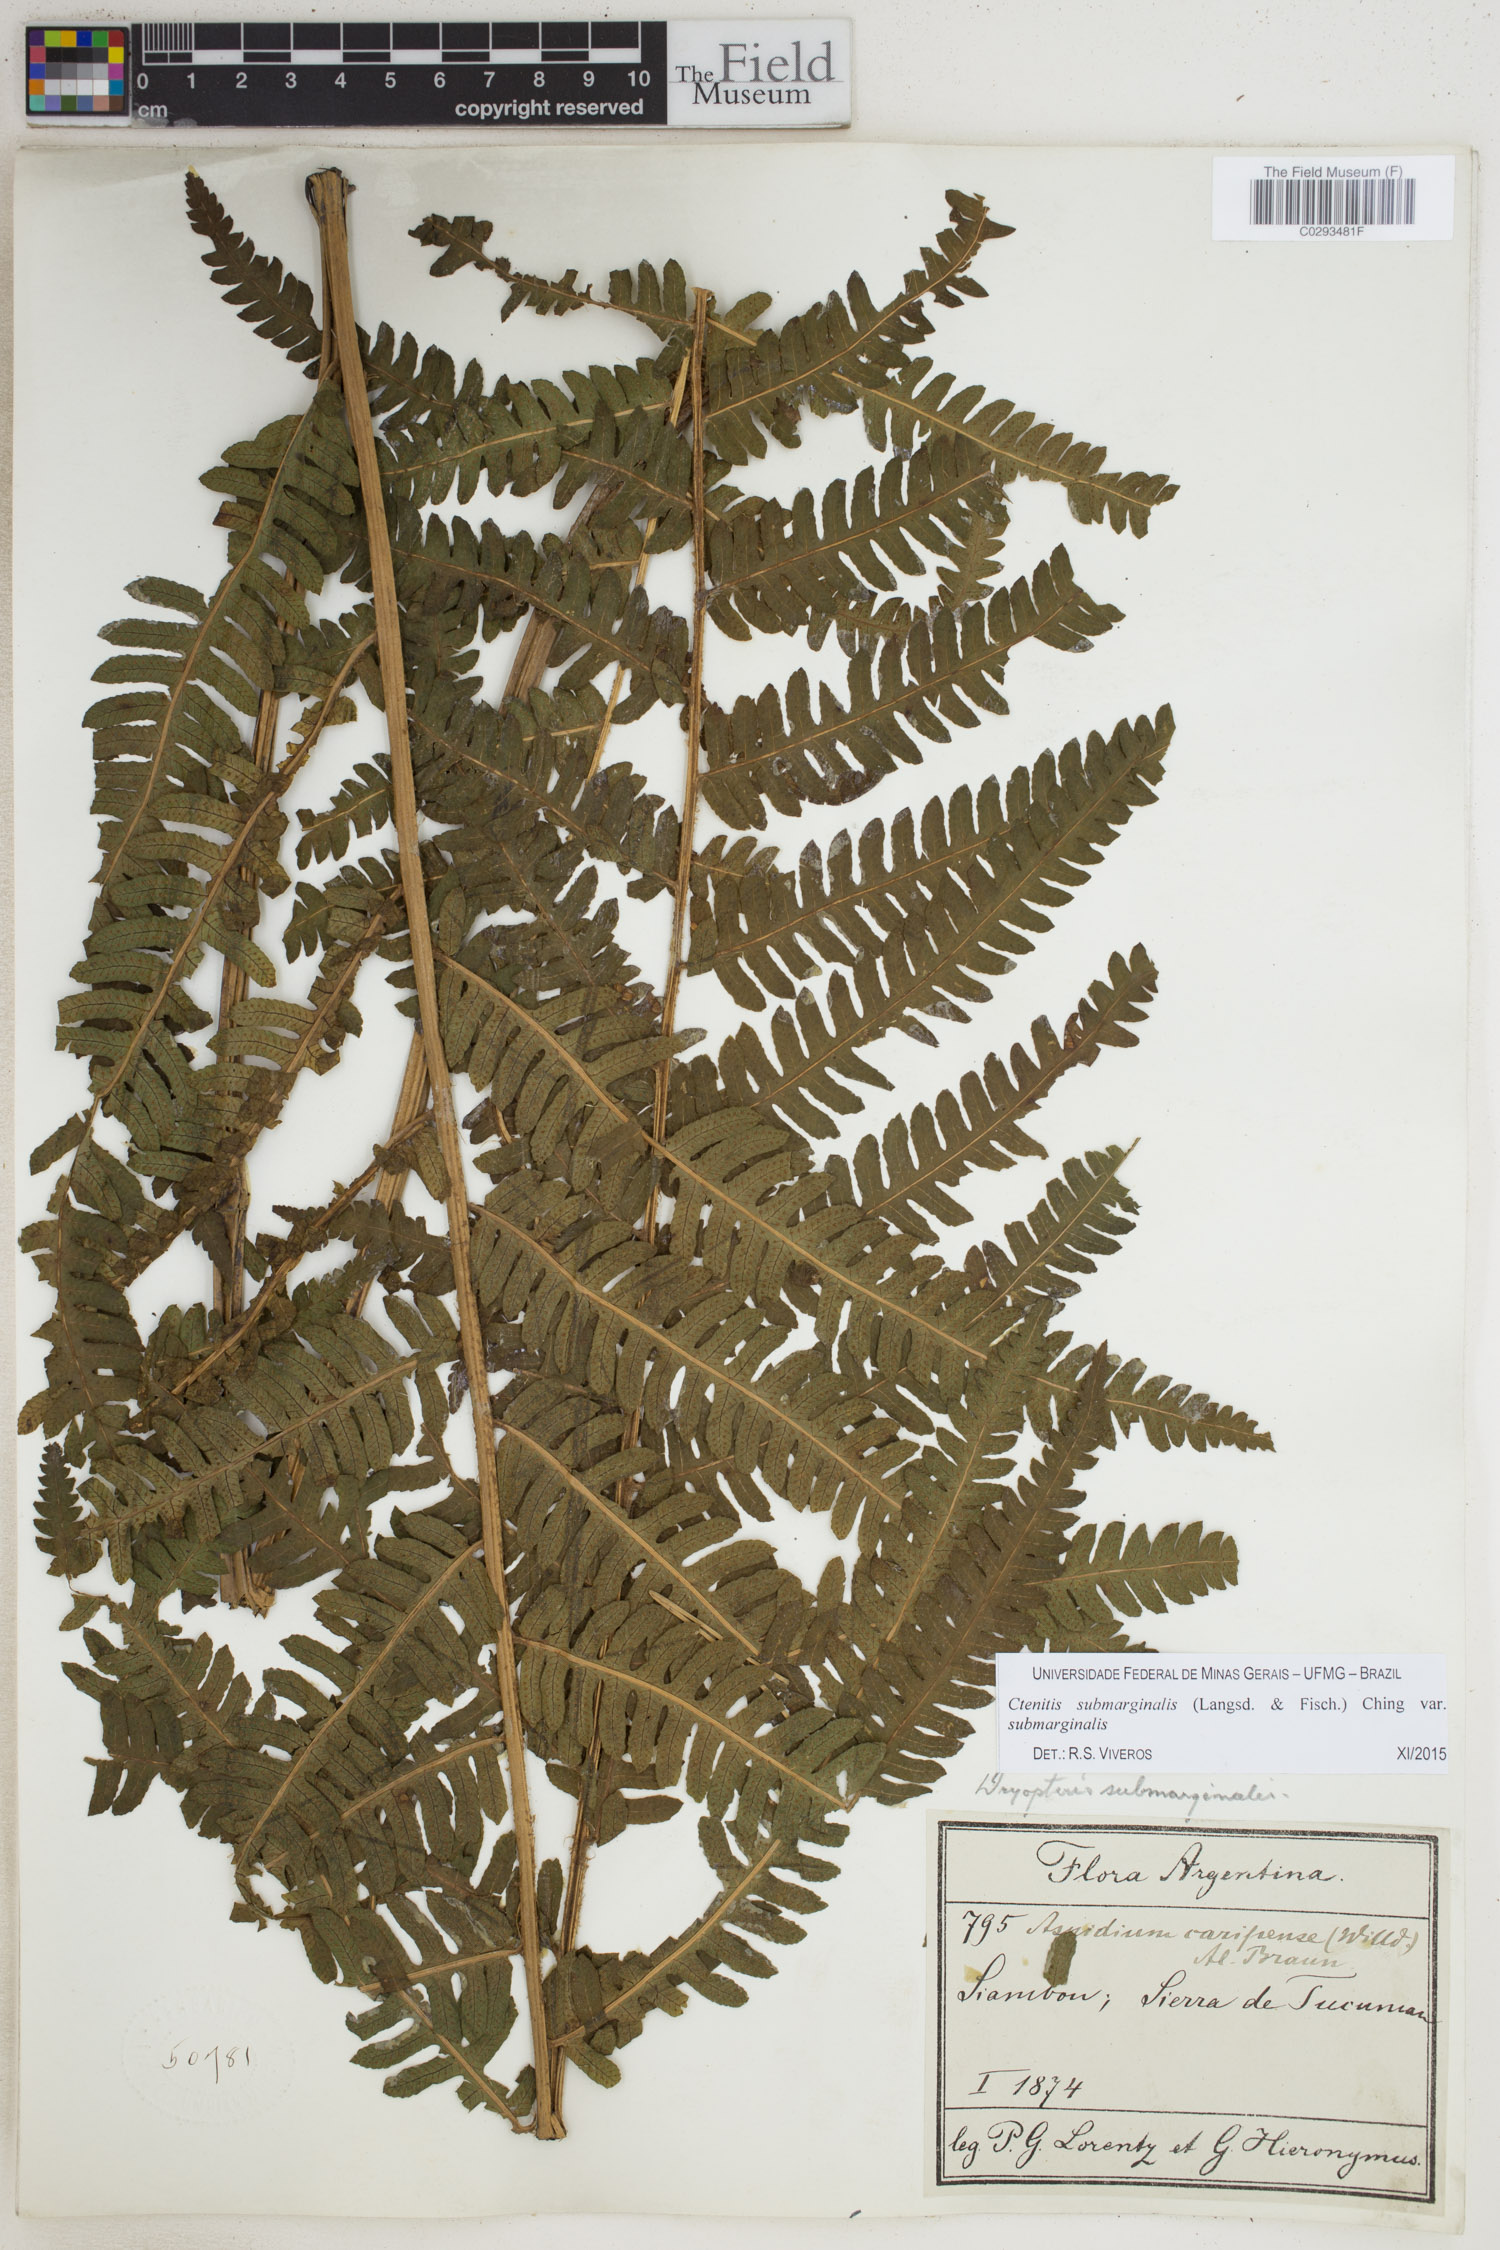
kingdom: Plantae
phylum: Tracheophyta
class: Polypodiopsida
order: Polypodiales
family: Dryopteridaceae
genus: Ctenitis
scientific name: Ctenitis submarginalis
